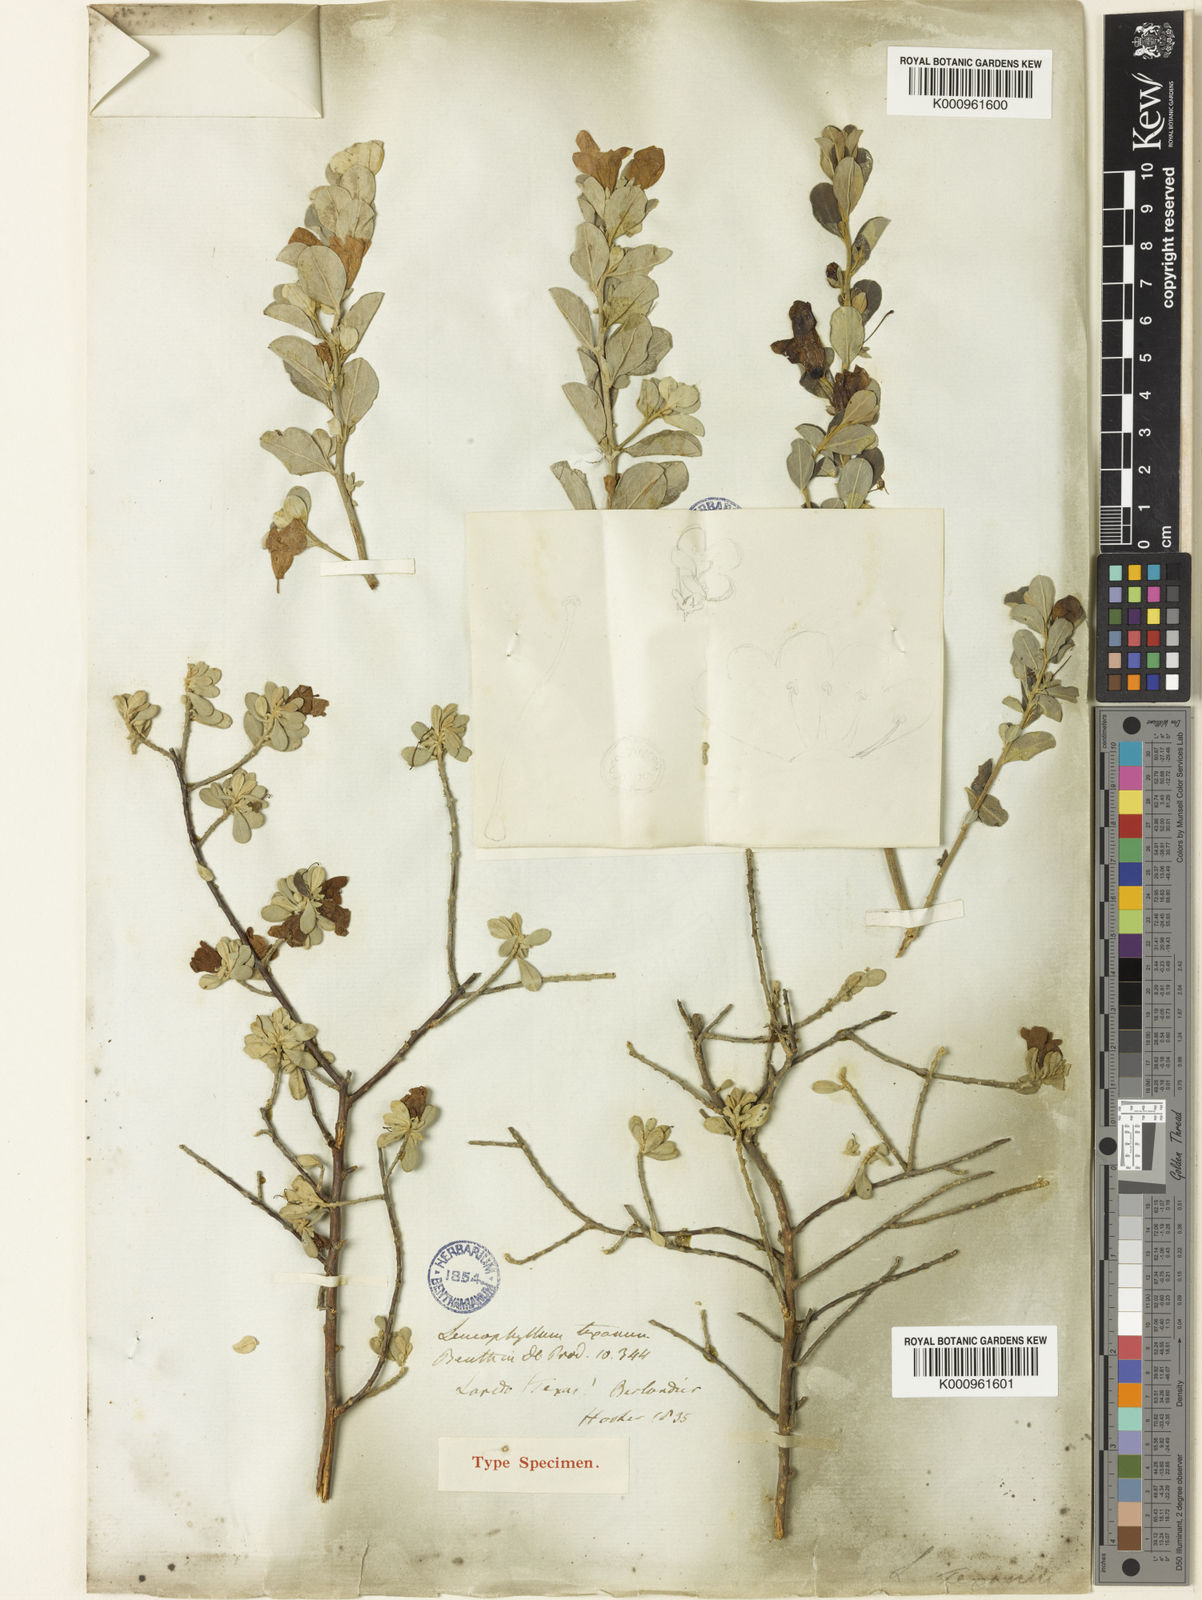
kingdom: Plantae
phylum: Tracheophyta
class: Magnoliopsida
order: Lamiales
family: Scrophulariaceae
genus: Leucophyllum
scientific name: Leucophyllum frutescens
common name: Texas silverleaf
